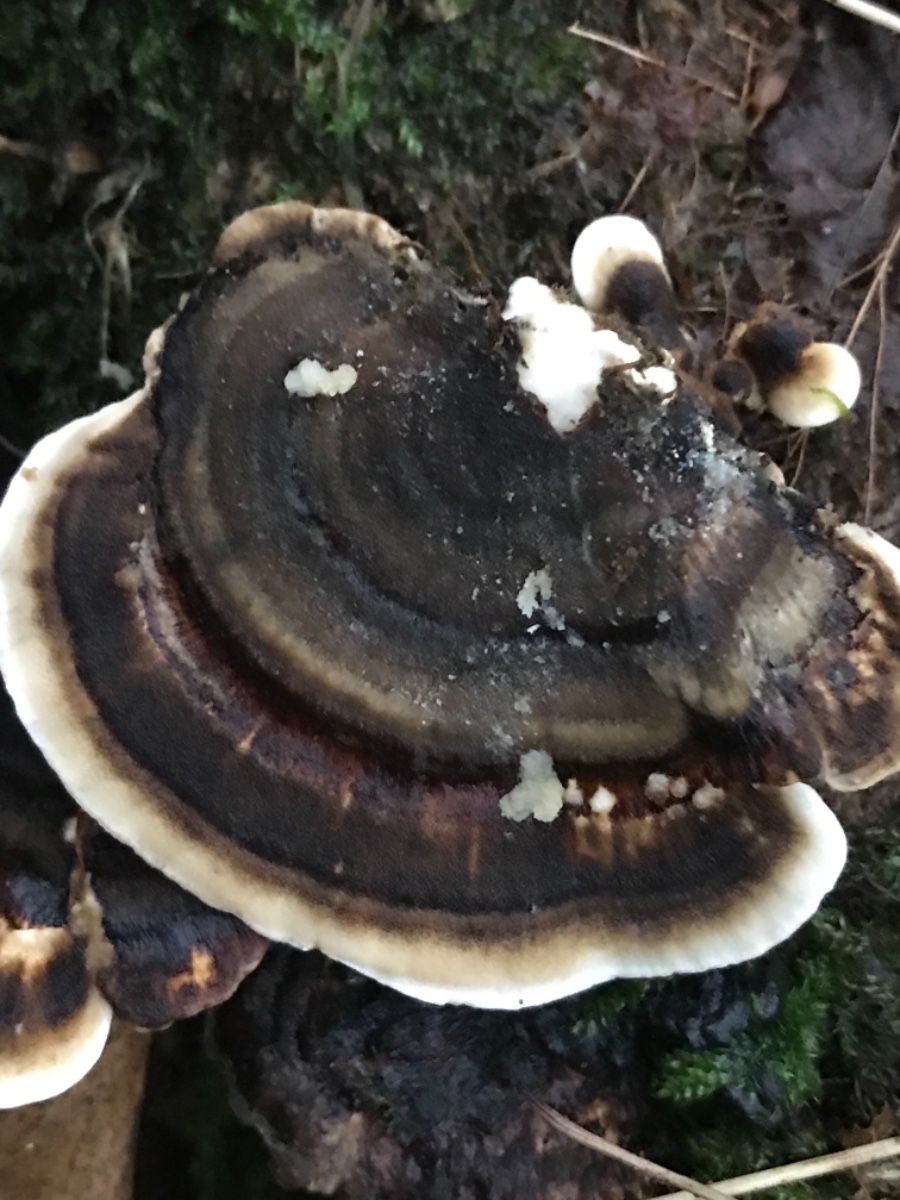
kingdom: Fungi
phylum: Basidiomycota
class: Agaricomycetes
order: Polyporales
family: Polyporaceae
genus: Trametes
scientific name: Trametes versicolor
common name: broget læderporesvamp
